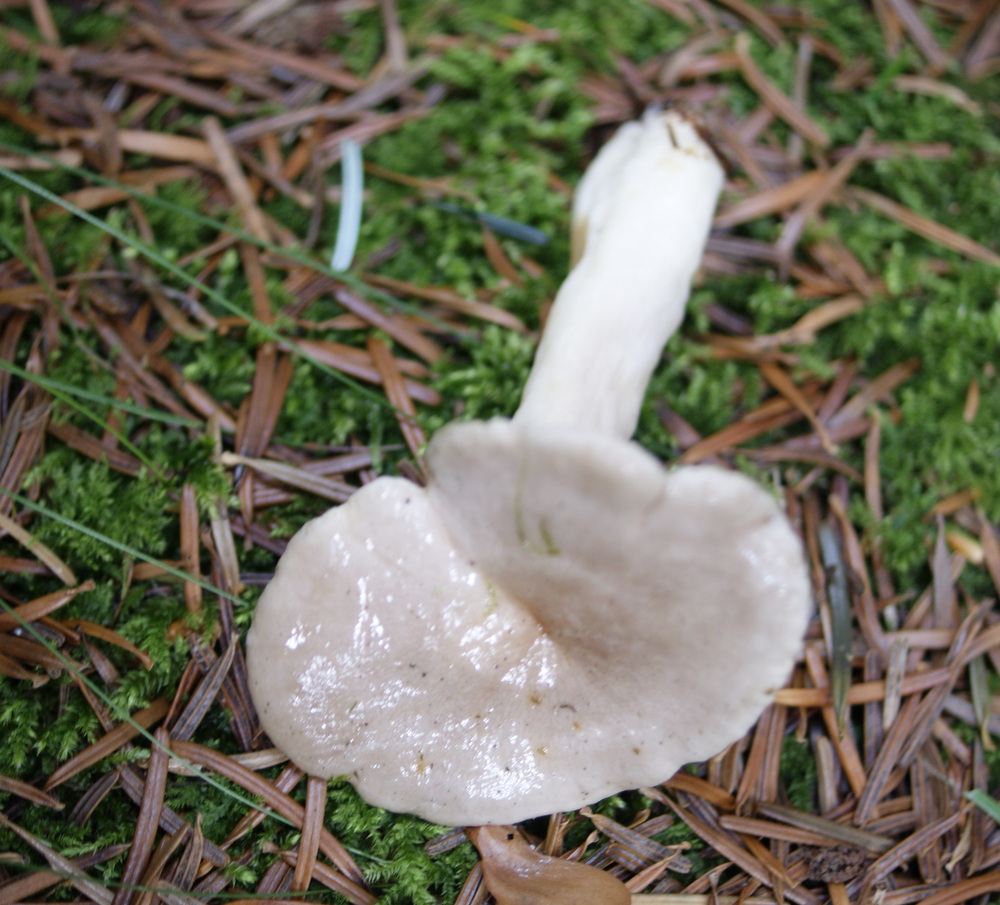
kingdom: Fungi
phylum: Basidiomycota
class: Agaricomycetes
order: Russulales
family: Russulaceae
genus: Lactarius
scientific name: Lactarius albocarneus
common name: ædelgran-mælkehat
